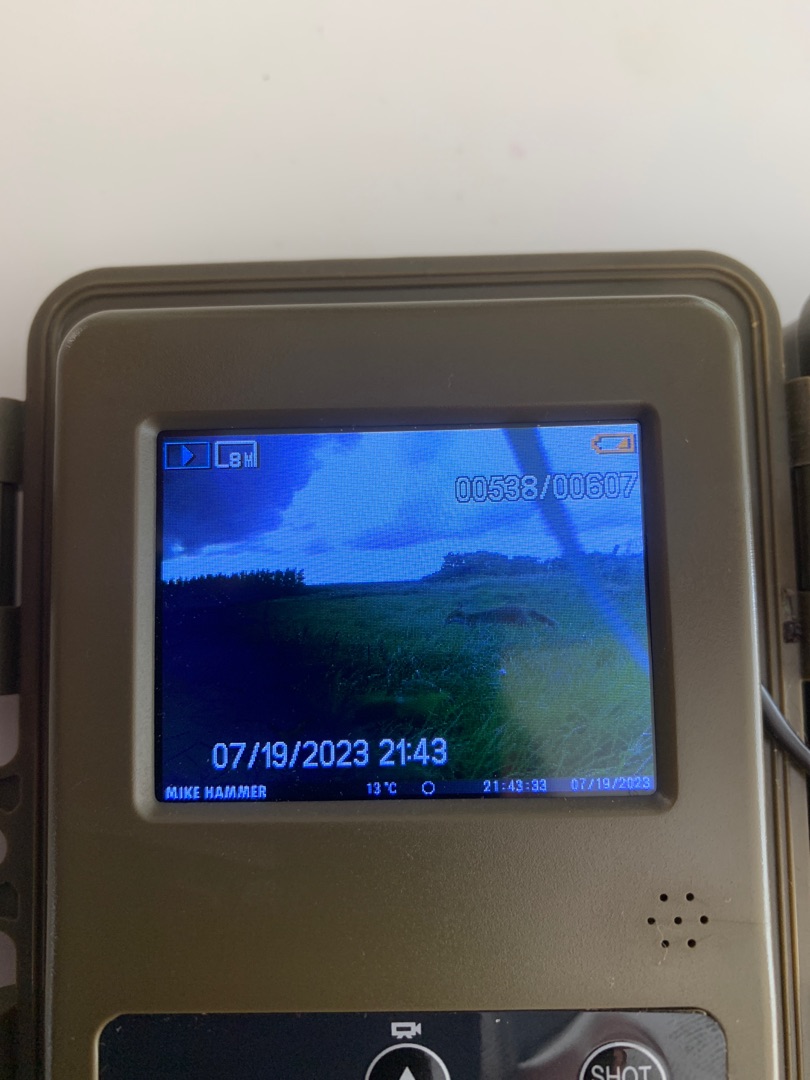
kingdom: Animalia
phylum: Chordata
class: Mammalia
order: Carnivora
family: Canidae
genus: Vulpes
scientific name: Vulpes vulpes
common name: Ræv
